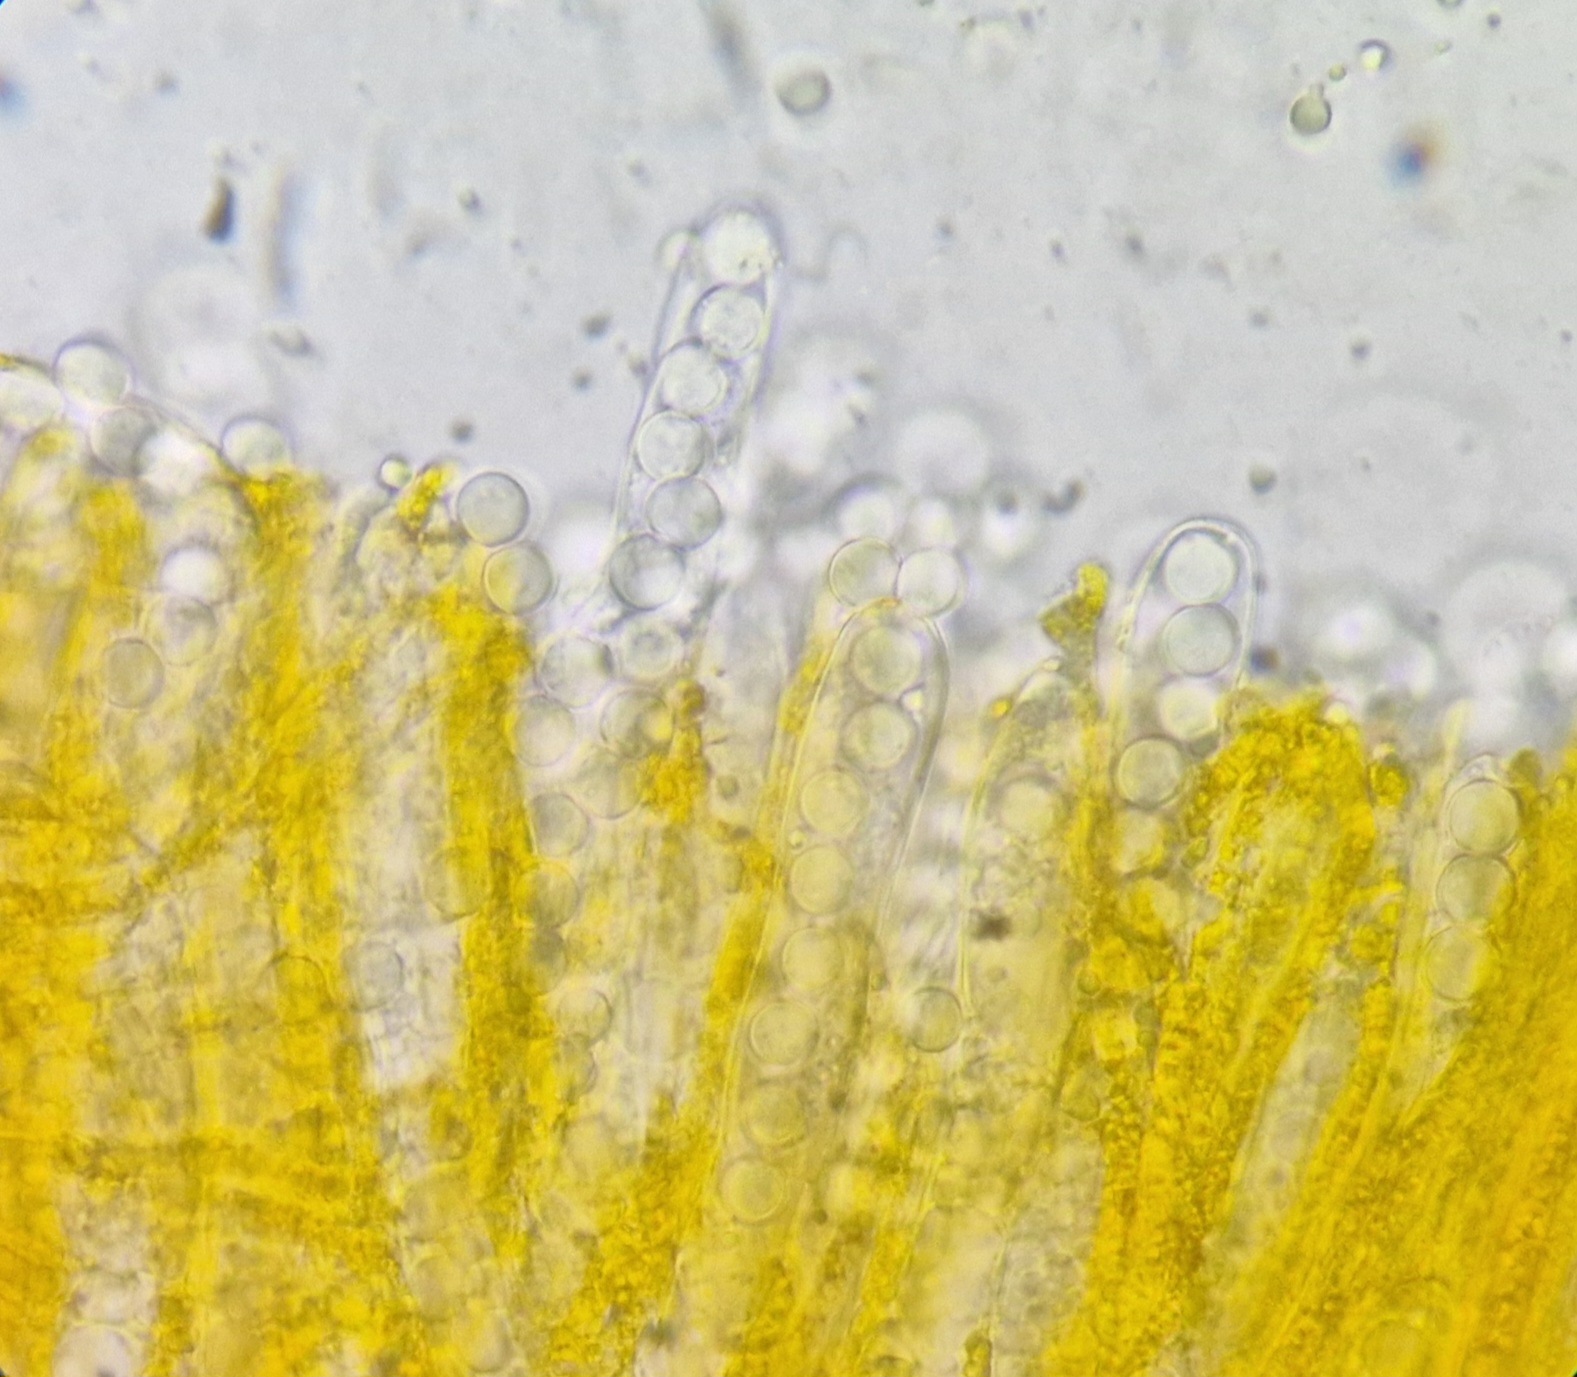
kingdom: Fungi
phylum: Ascomycota
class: Pezizomycetes
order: Pezizales
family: Caloscyphaceae
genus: Caloscypha
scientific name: Caloscypha fulgens
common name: jadebæger
